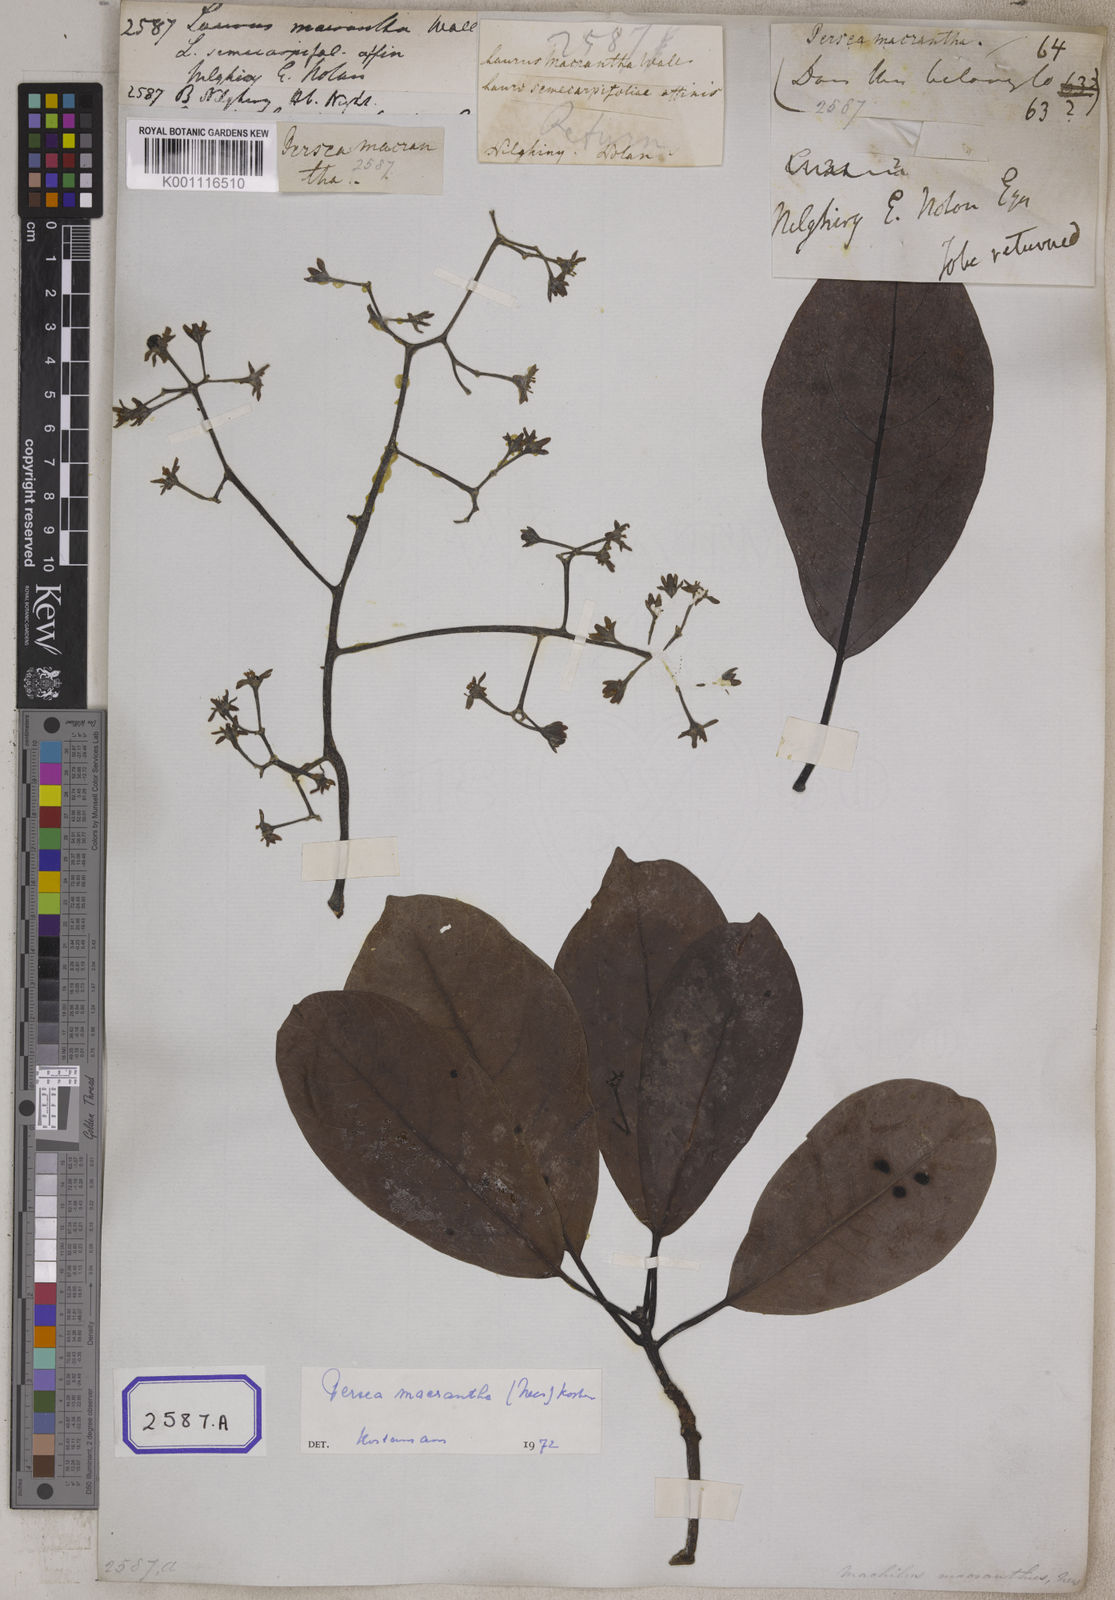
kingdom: Plantae
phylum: Tracheophyta
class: Magnoliopsida
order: Laurales
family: Lauraceae
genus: Machilus
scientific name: Machilus glaucescens
